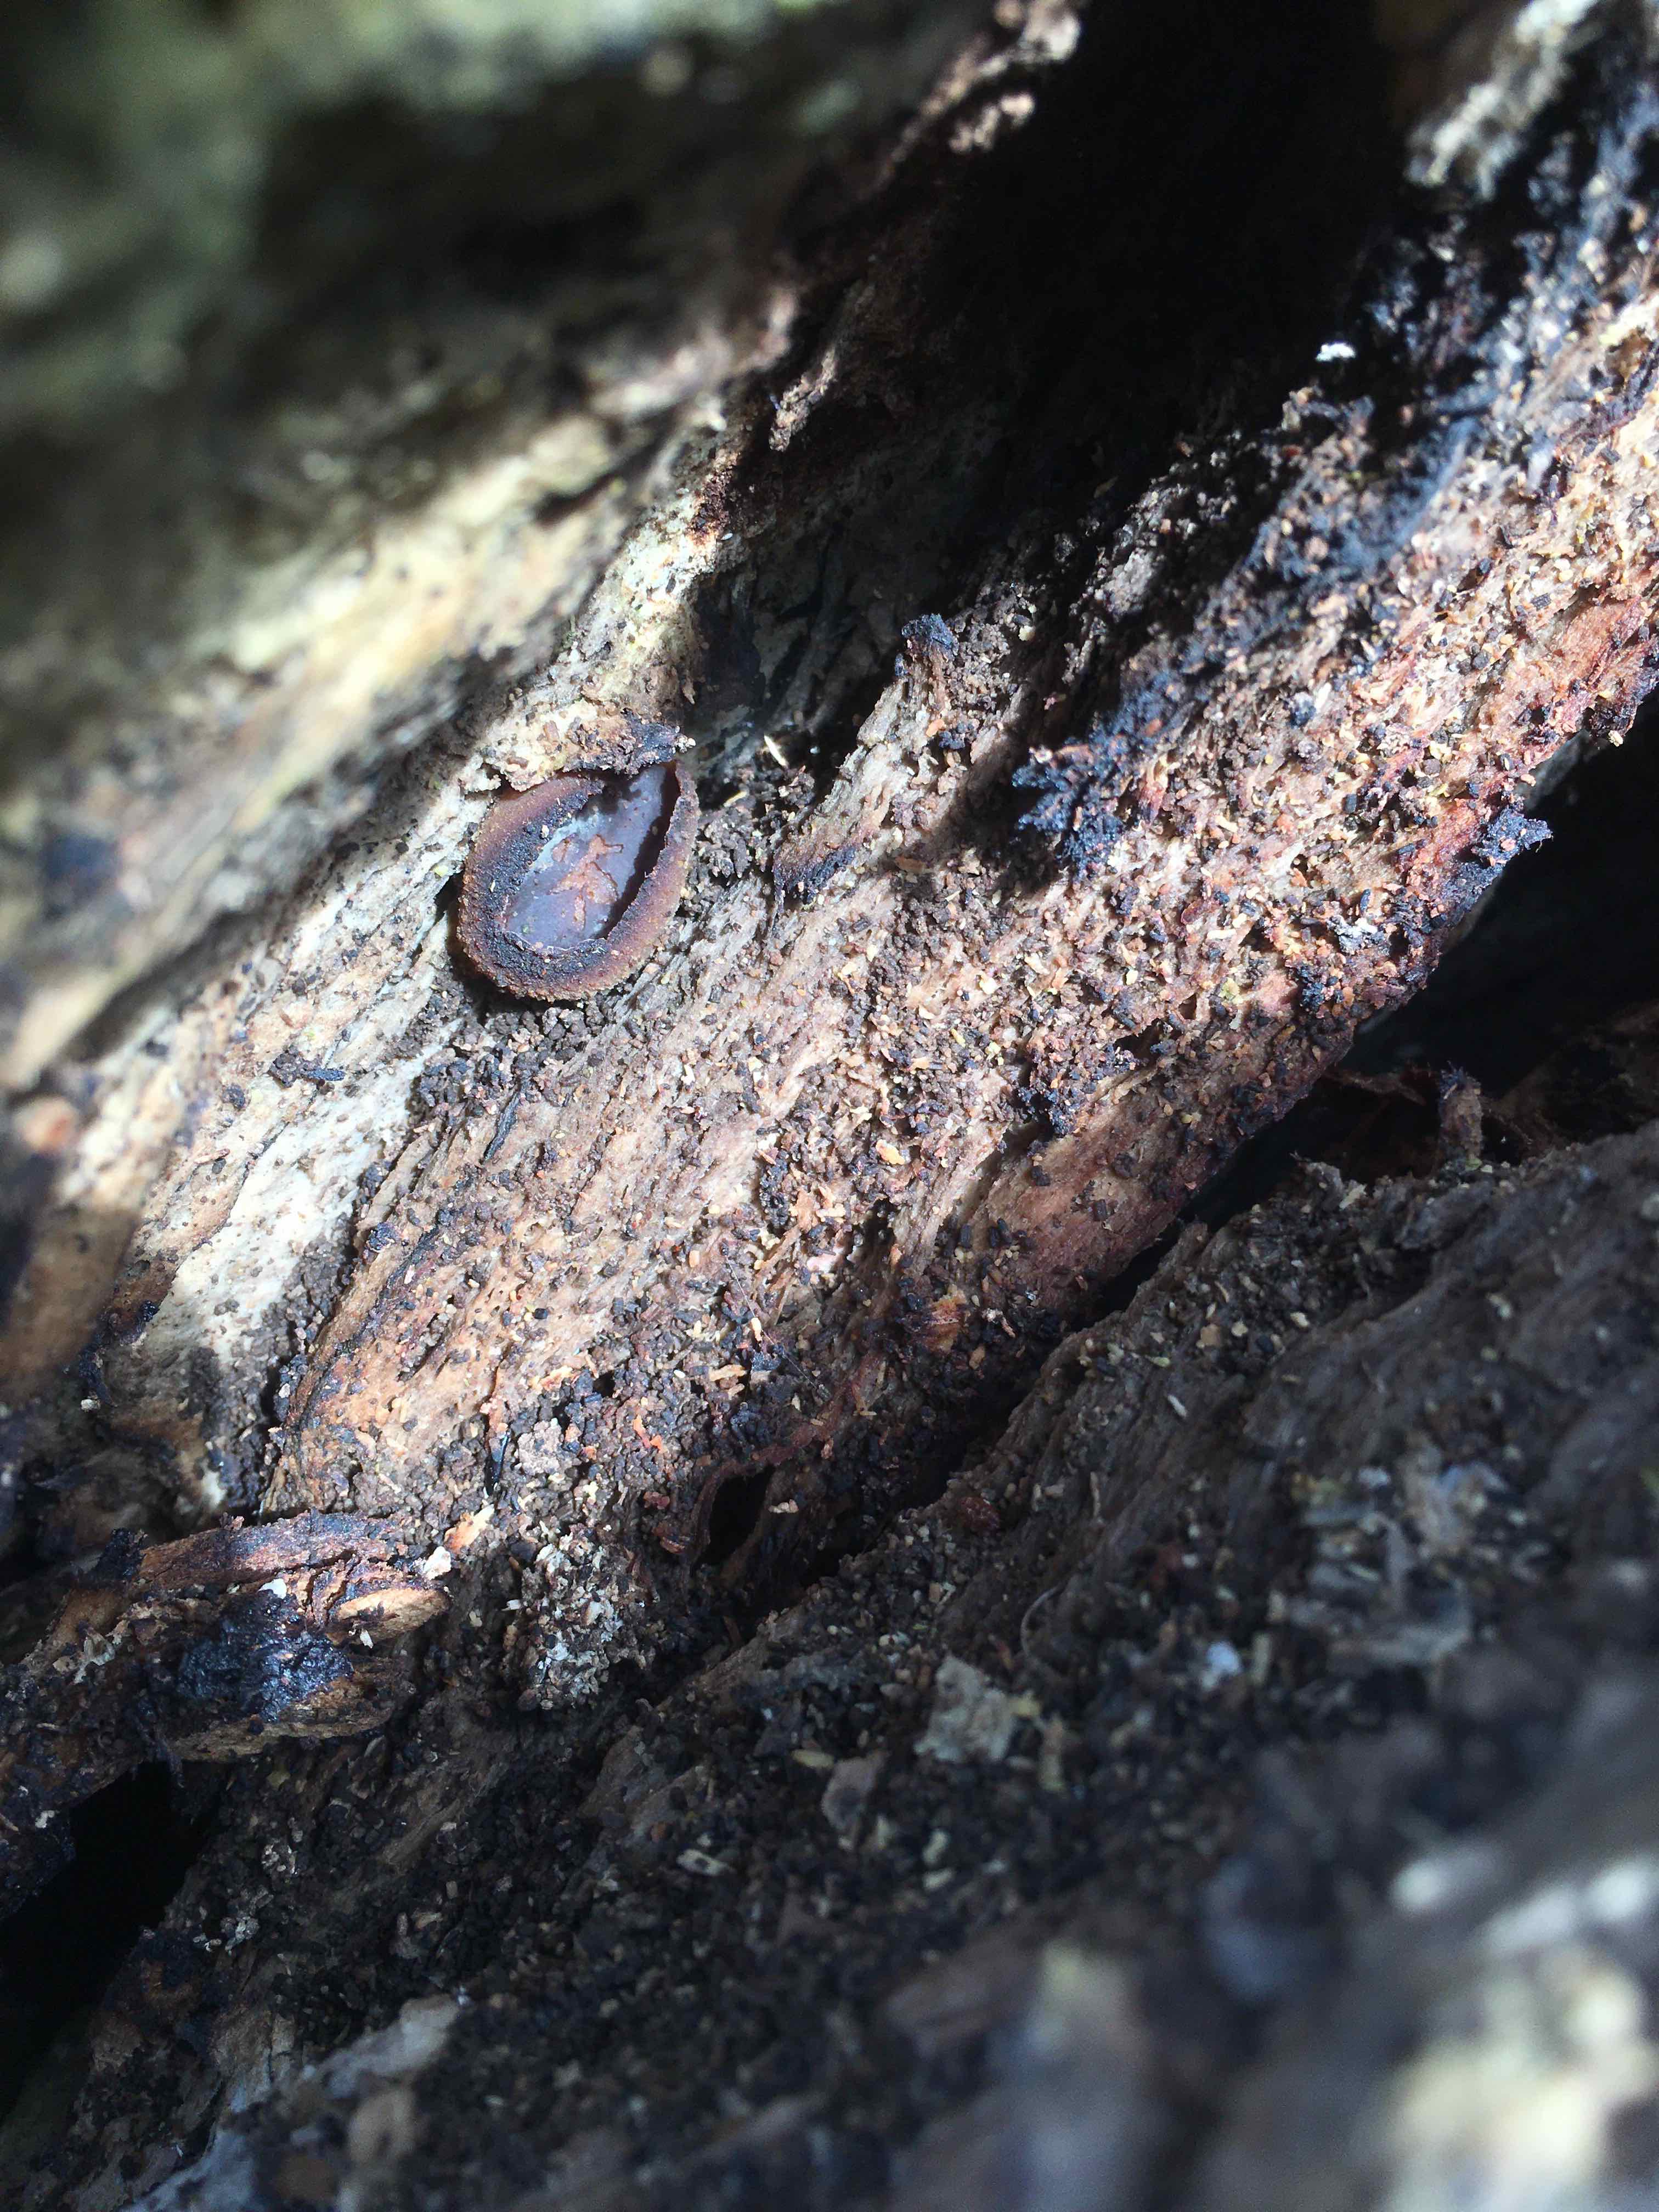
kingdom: Fungi
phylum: Ascomycota
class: Pezizomycetes
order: Pezizales
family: Pezizaceae
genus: Peziza
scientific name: Peziza varia
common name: Ved-bægersvamp
